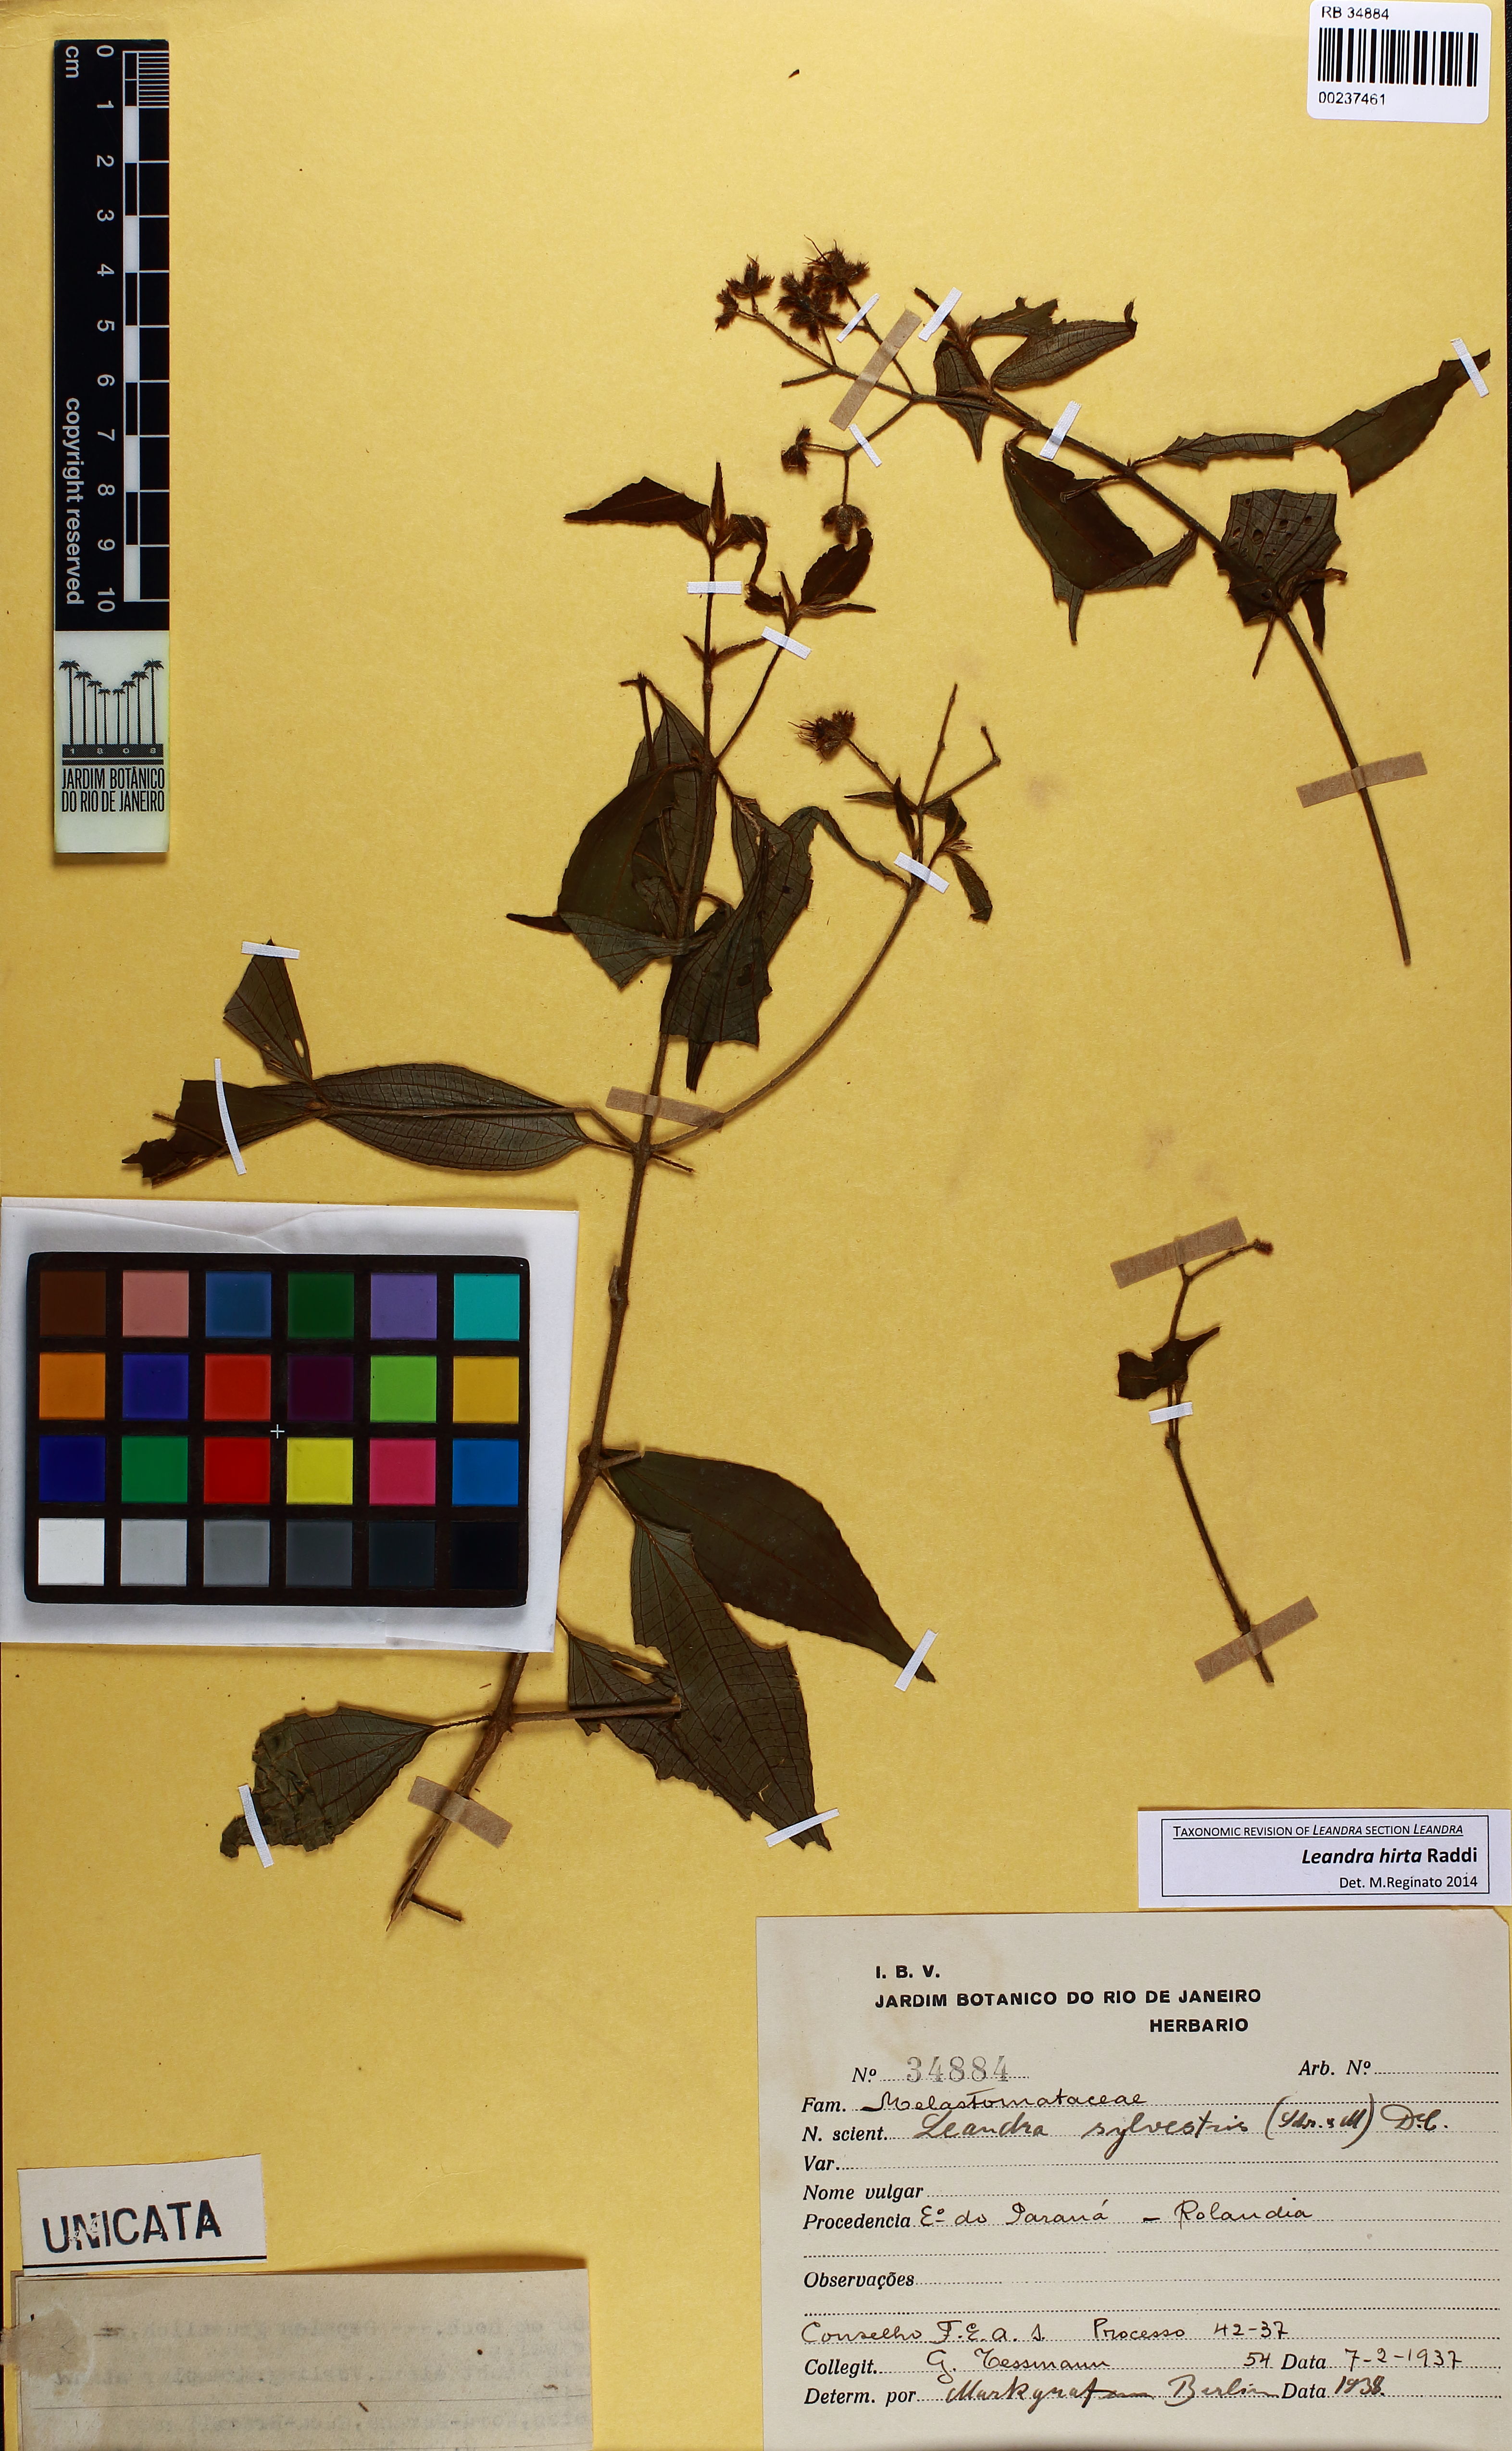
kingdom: Plantae
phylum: Tracheophyta
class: Magnoliopsida
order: Myrtales
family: Melastomataceae
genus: Miconia
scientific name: Miconia dubia
